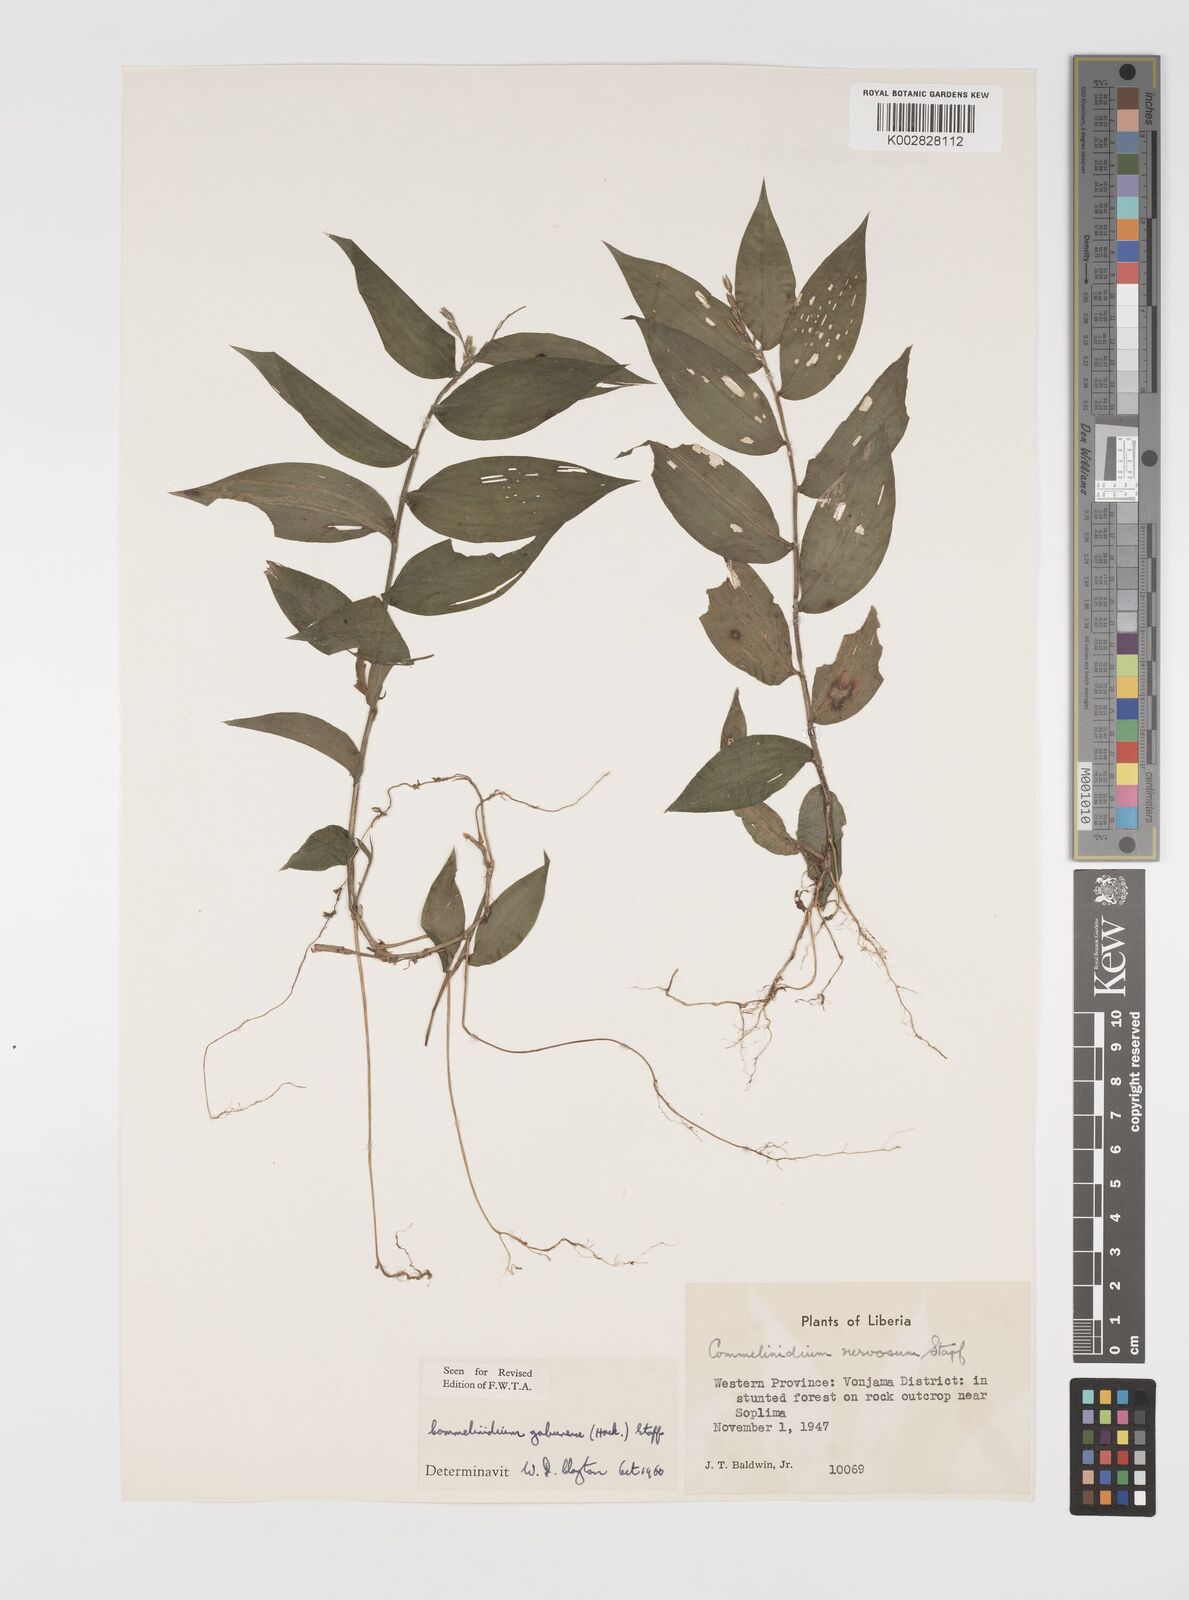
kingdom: Plantae
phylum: Tracheophyta
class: Liliopsida
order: Poales
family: Poaceae
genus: Acroceras
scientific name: Acroceras gabunense
